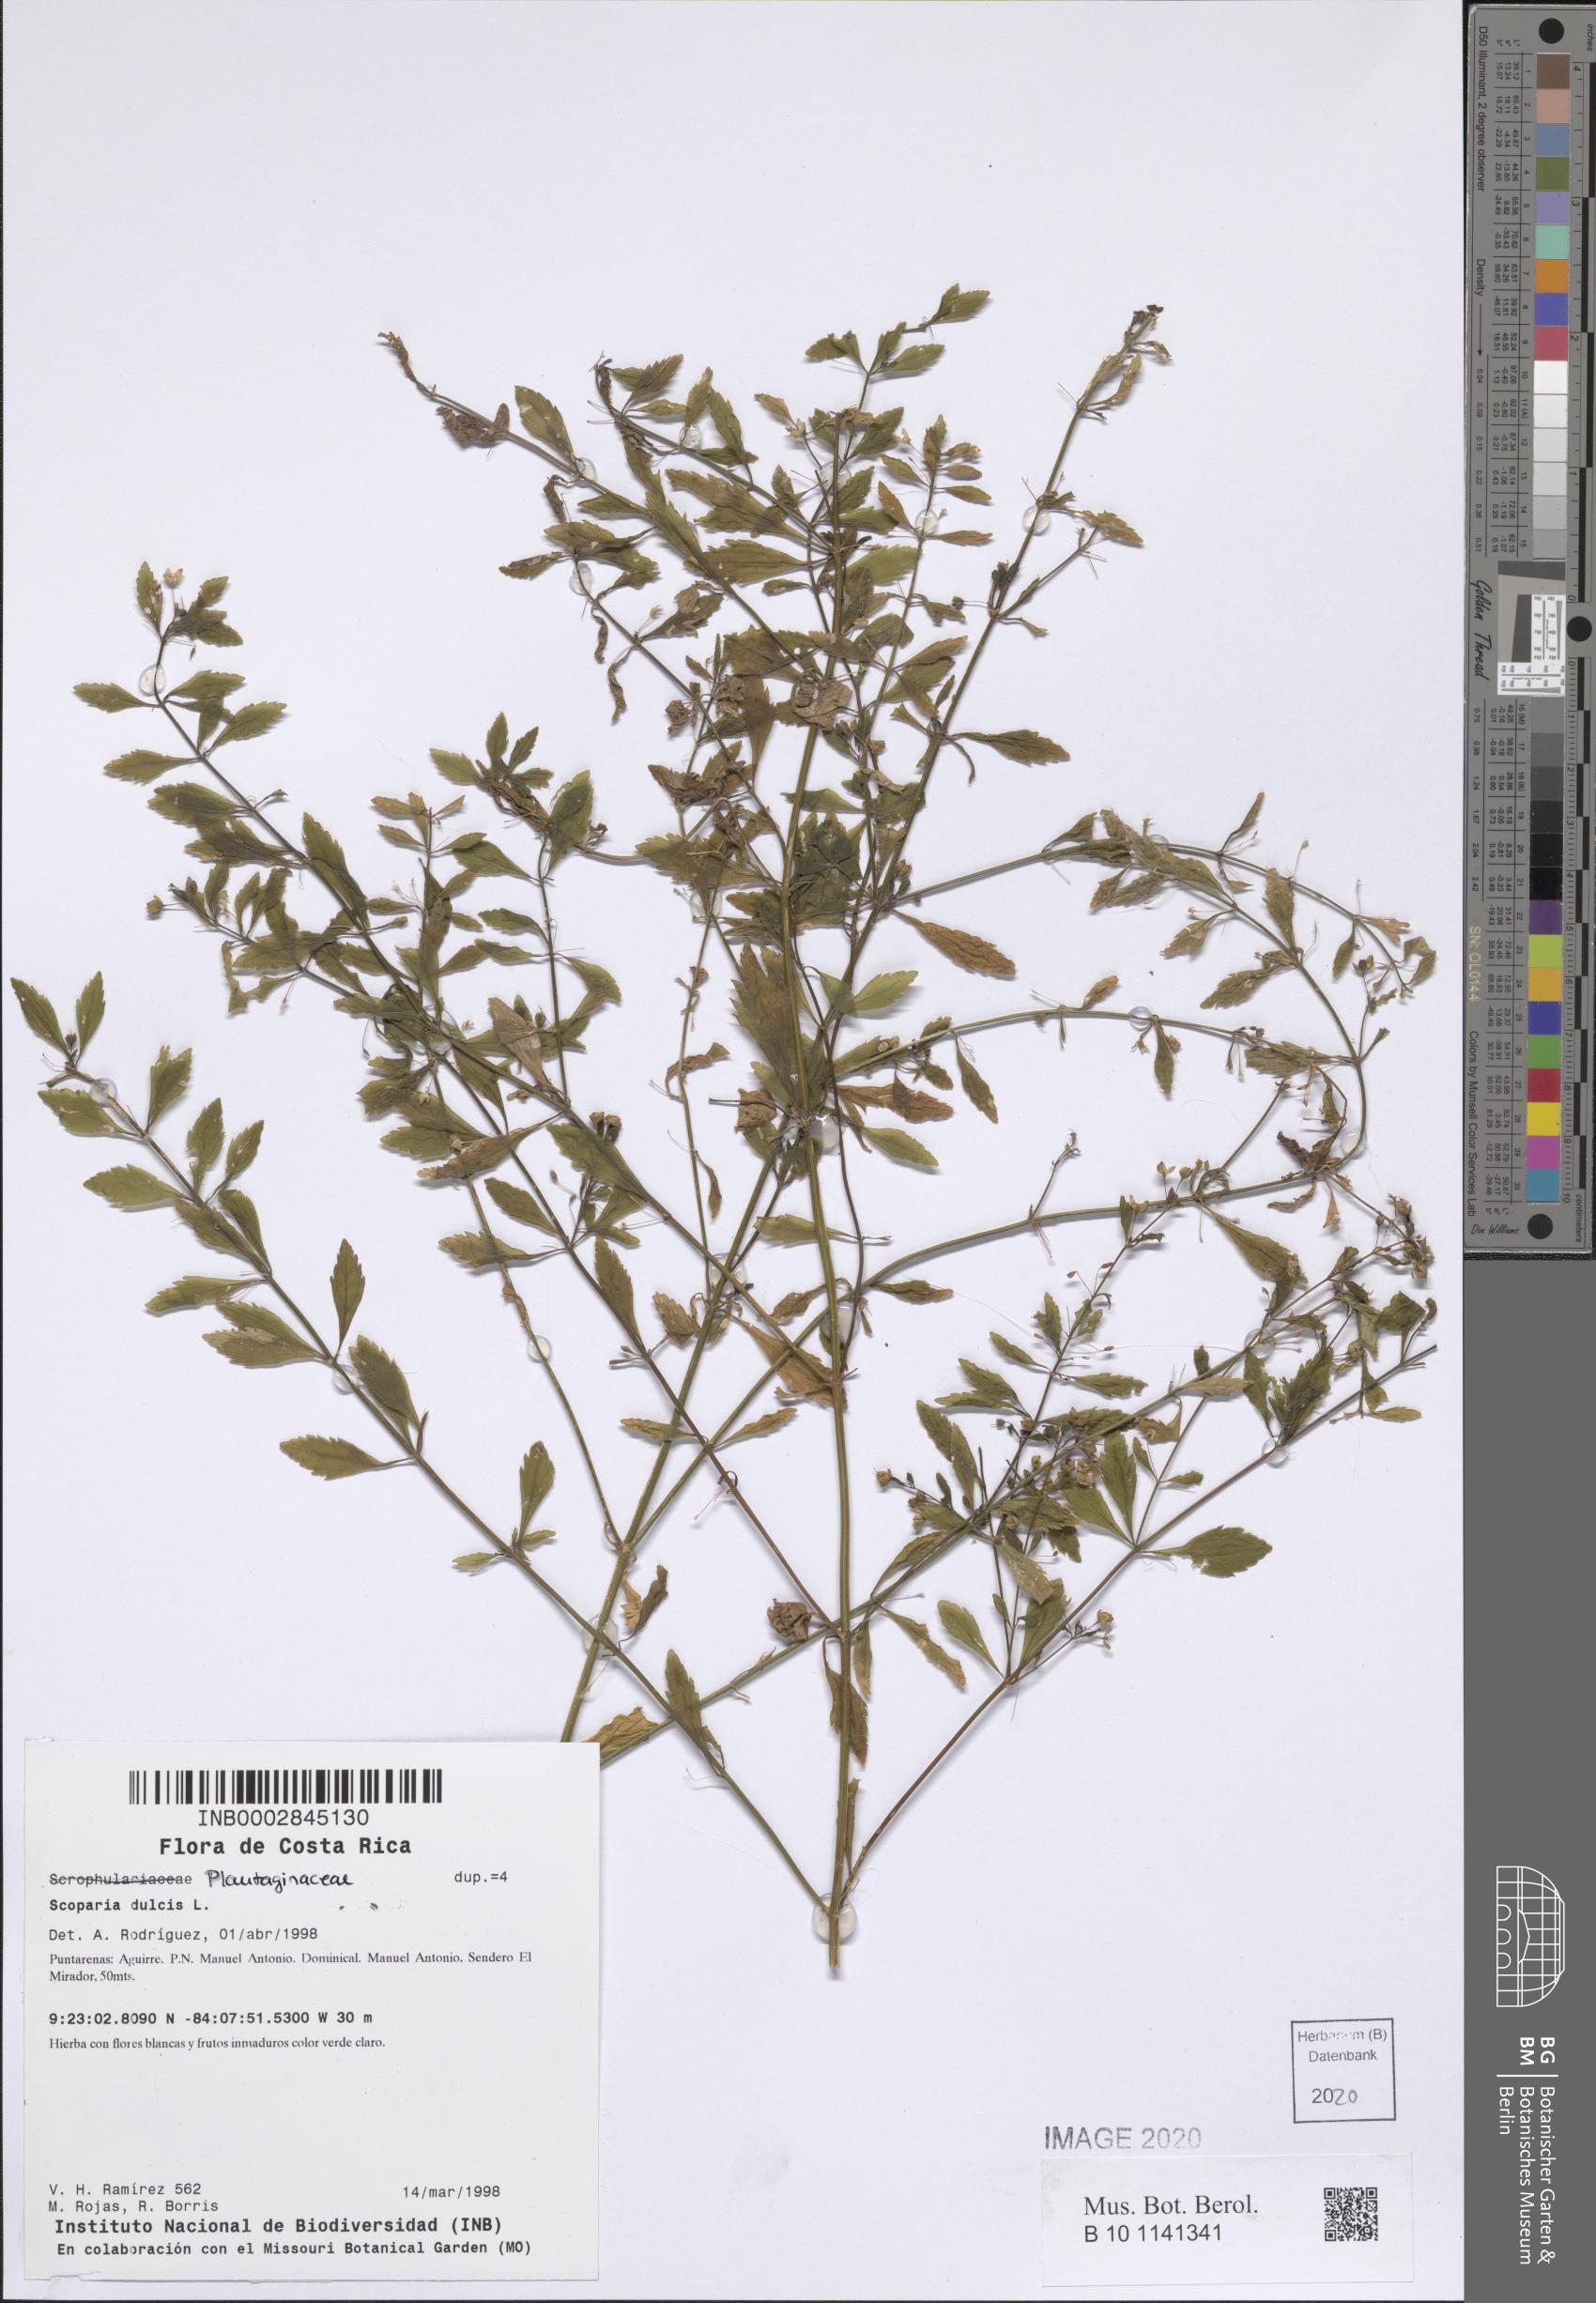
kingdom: Plantae
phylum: Tracheophyta
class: Magnoliopsida
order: Lamiales
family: Plantaginaceae
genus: Scoparia
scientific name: Scoparia dulcis
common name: Scoparia-weed
